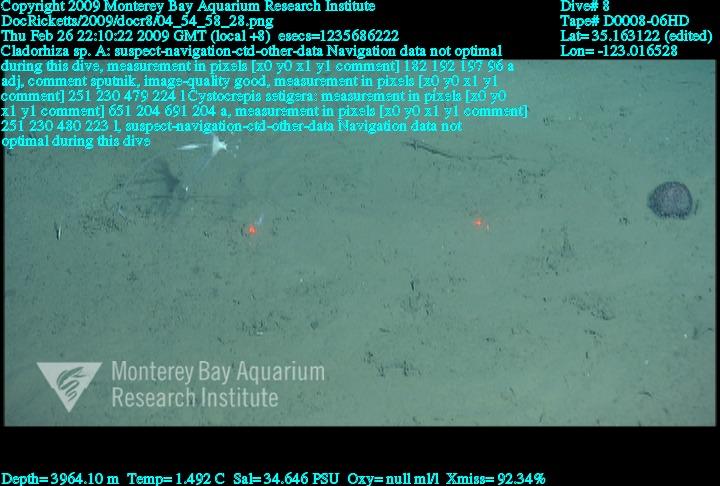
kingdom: Animalia
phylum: Porifera
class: Demospongiae
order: Poecilosclerida
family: Cladorhizidae
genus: Cladorhiza
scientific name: Cladorhiza
